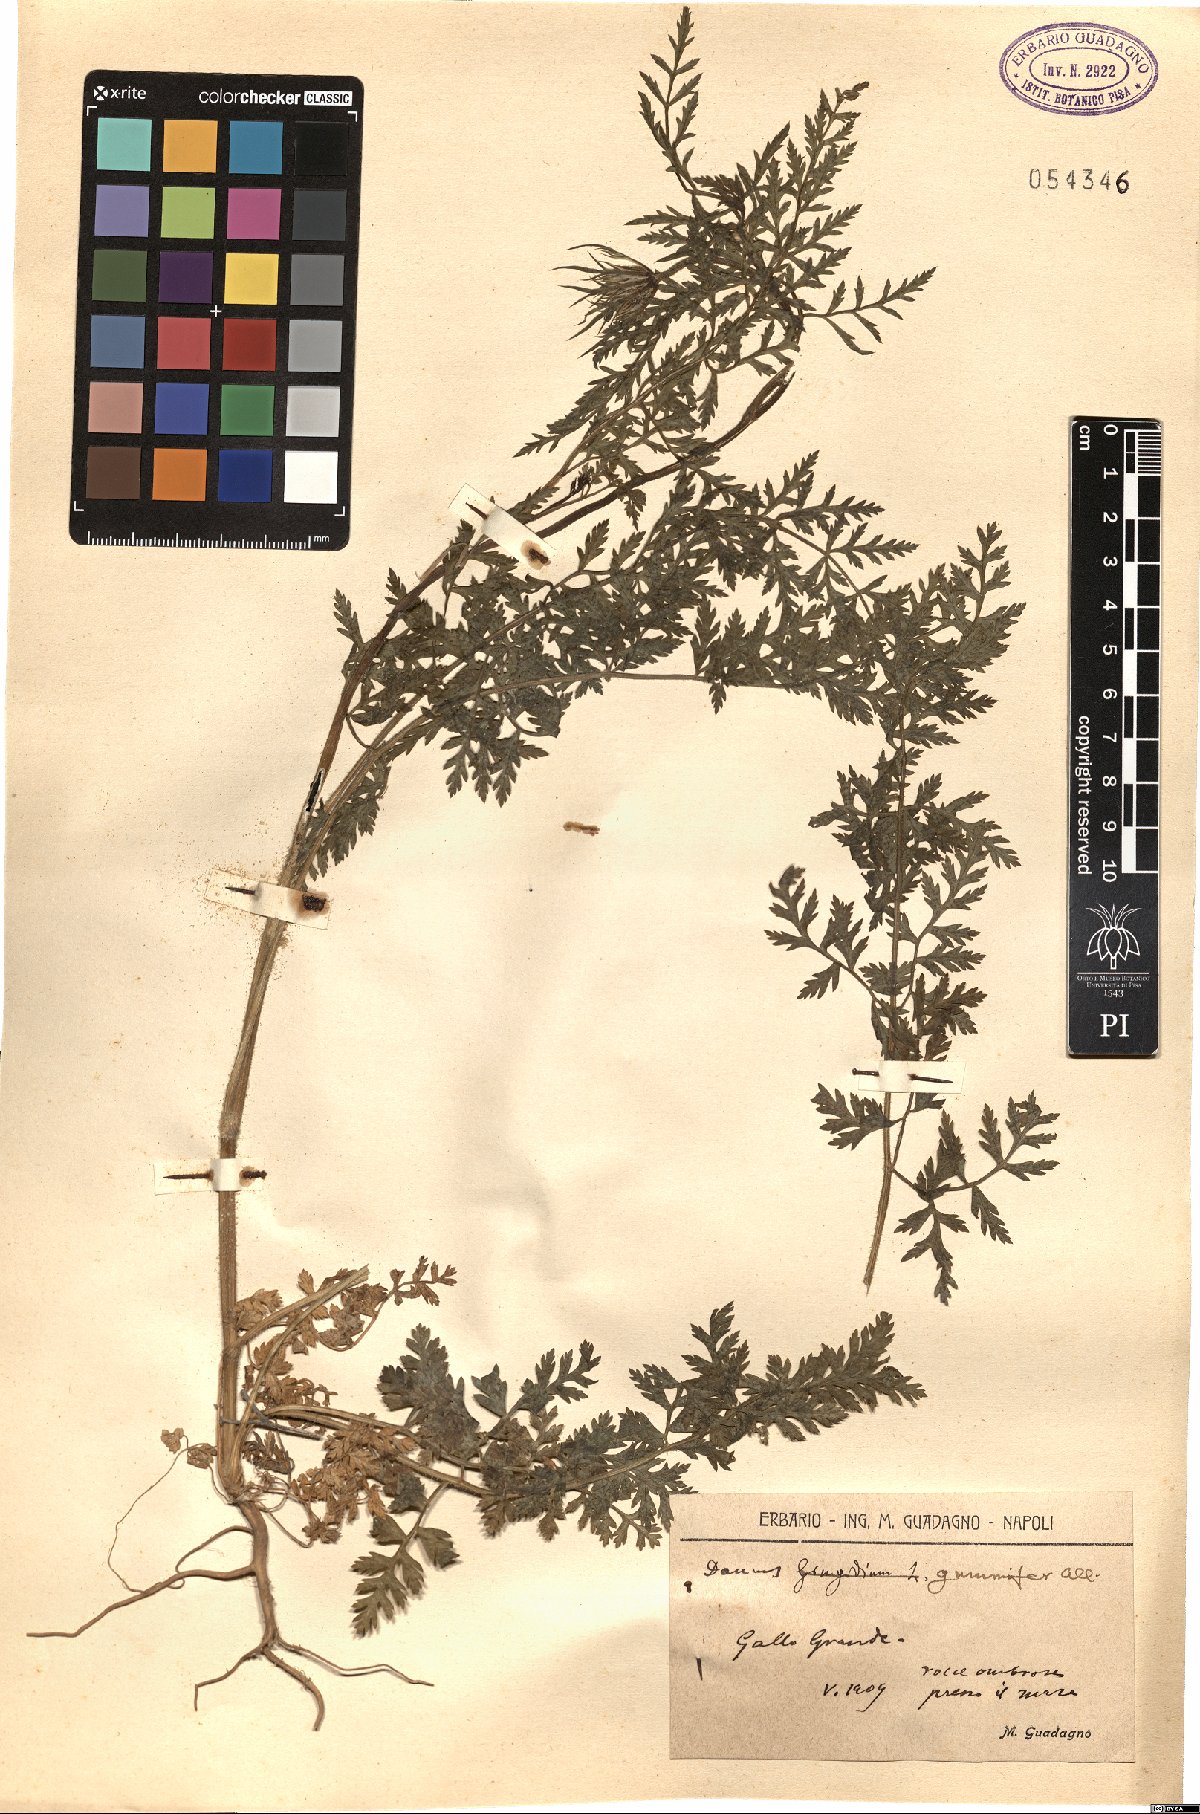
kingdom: Plantae
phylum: Tracheophyta
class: Magnoliopsida
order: Apiales
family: Apiaceae
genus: Daucus
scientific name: Daucus carota
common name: Wild carrot
